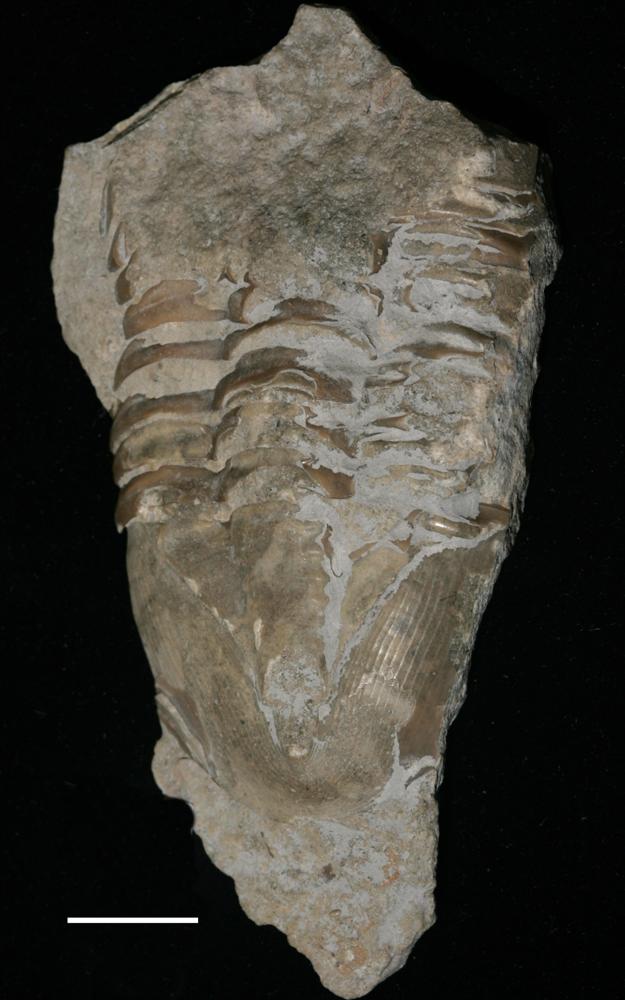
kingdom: Animalia
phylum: Arthropoda
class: Trilobita
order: Asaphida
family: Asaphidae
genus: Pseudasaphus
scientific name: Pseudasaphus globifrons
